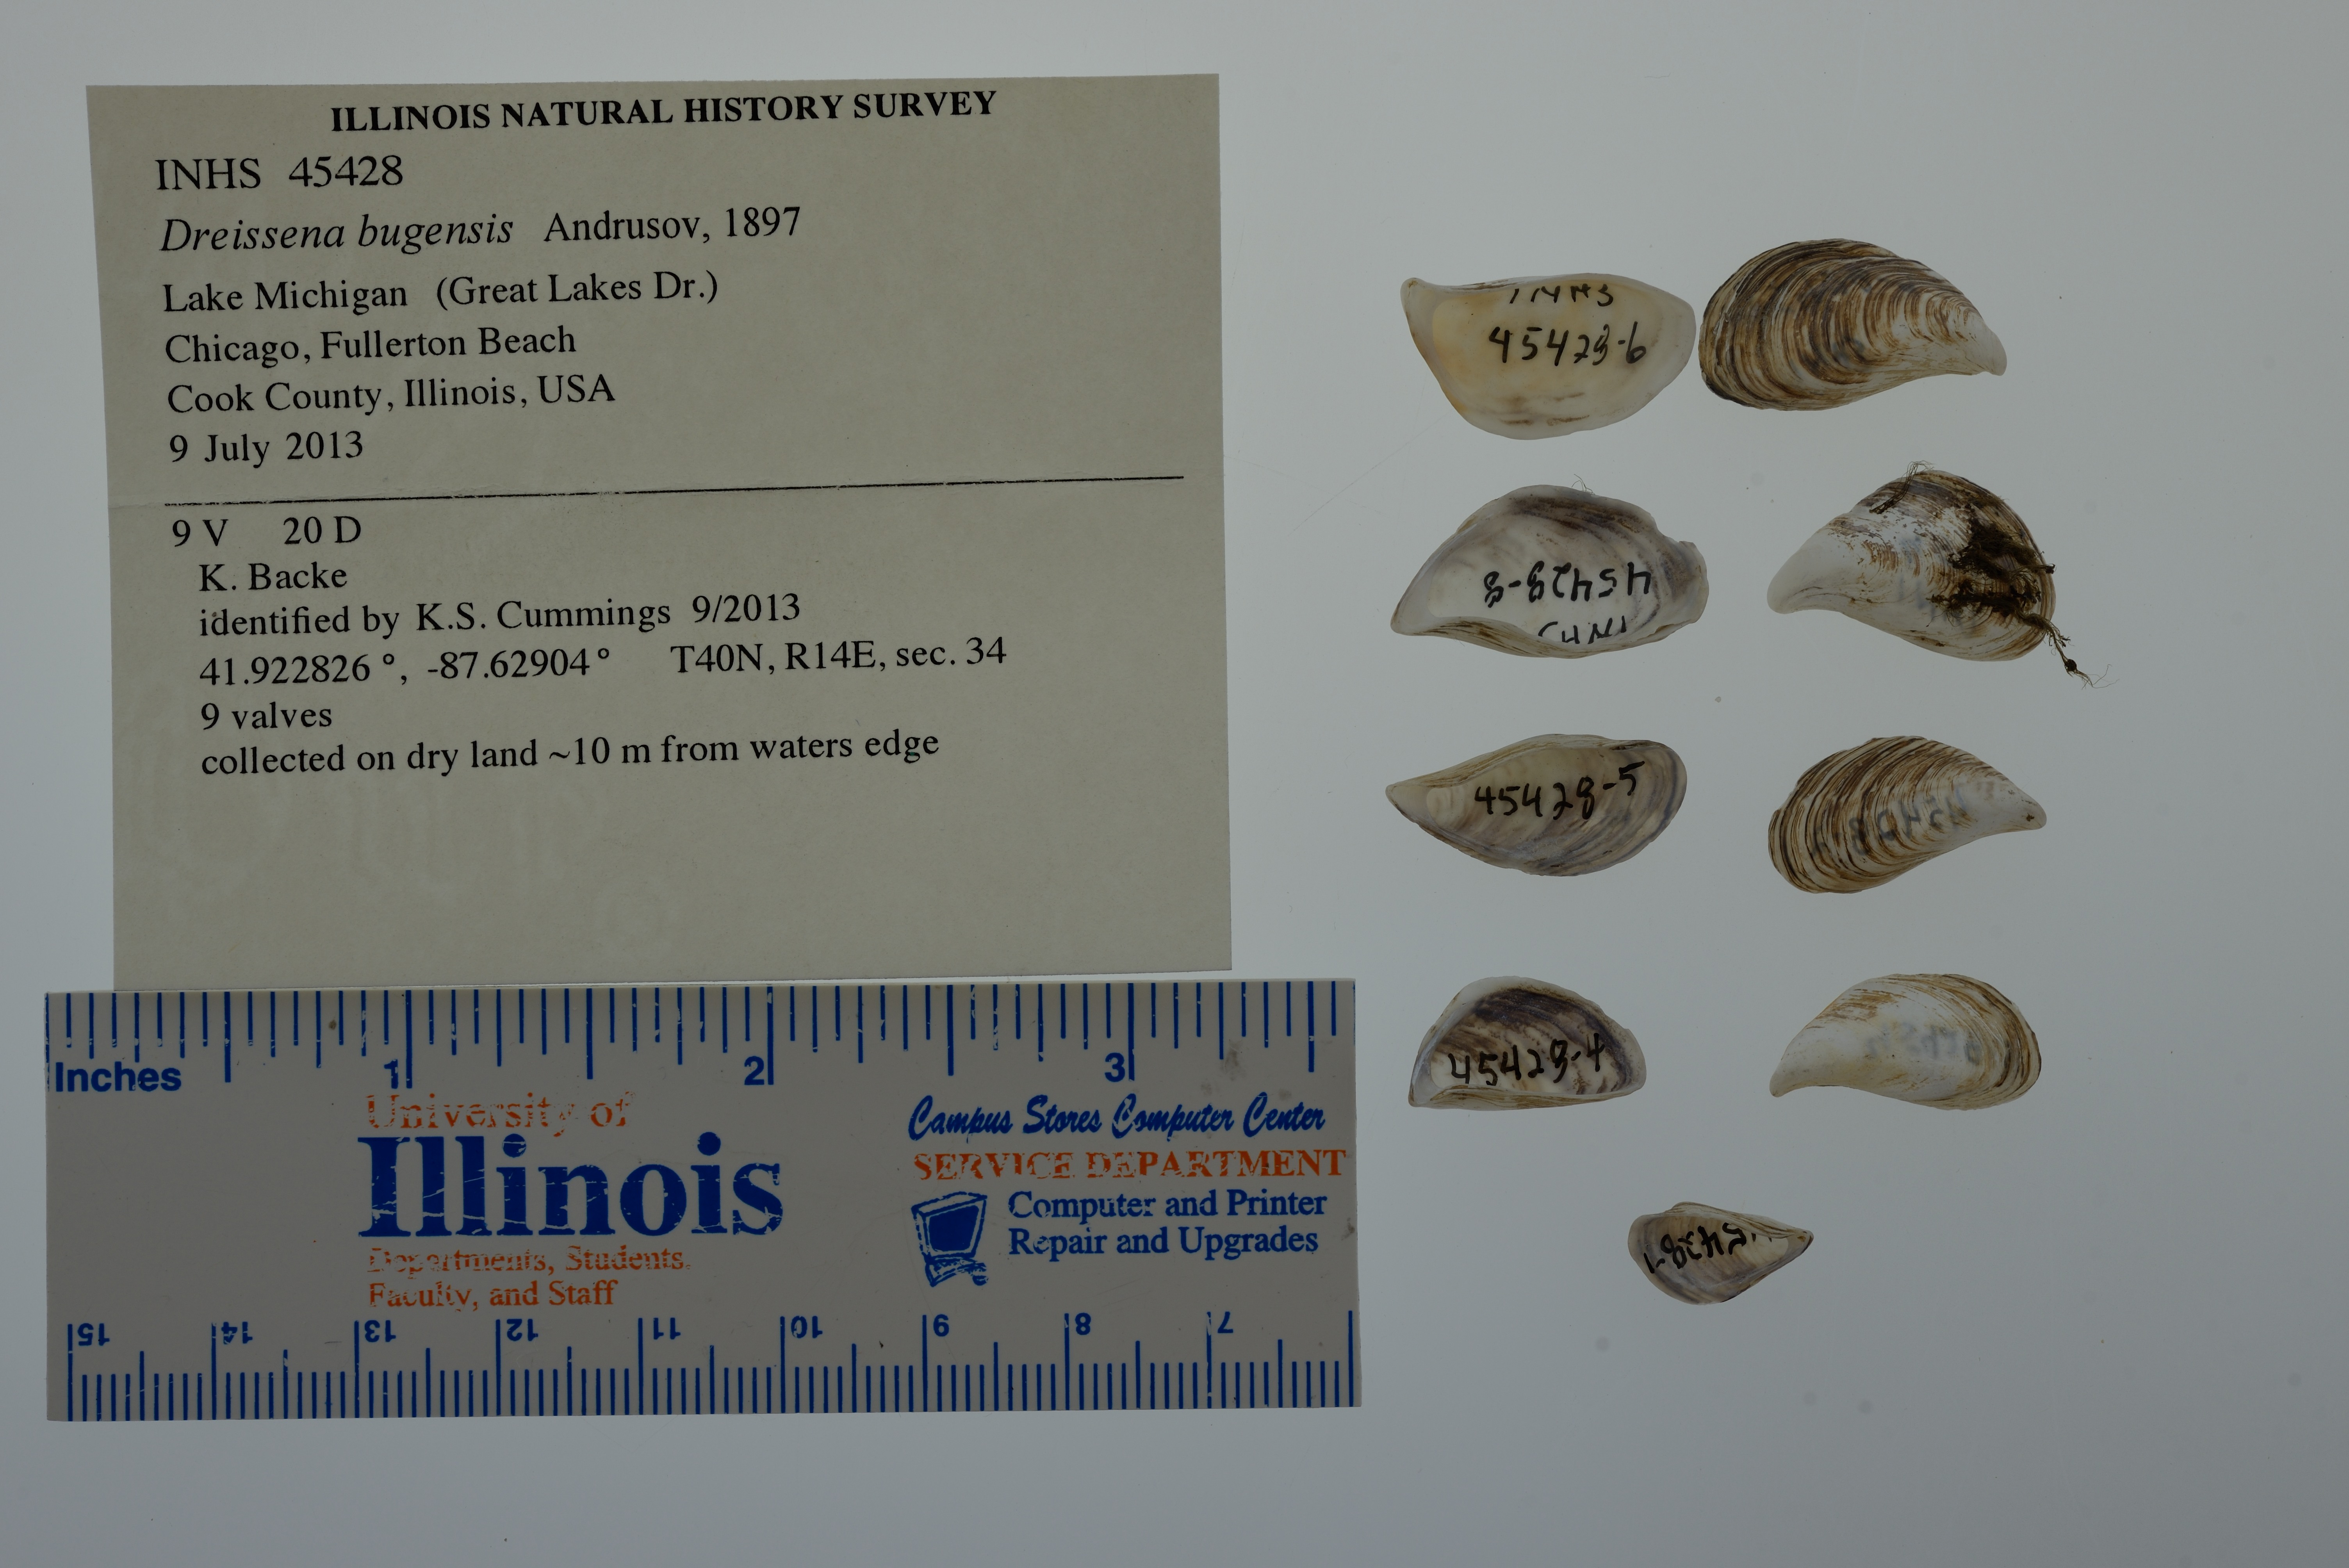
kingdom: Animalia
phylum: Mollusca
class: Bivalvia
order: Myida
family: Dreissenidae
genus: Dreissena
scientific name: Dreissena rostriformis
